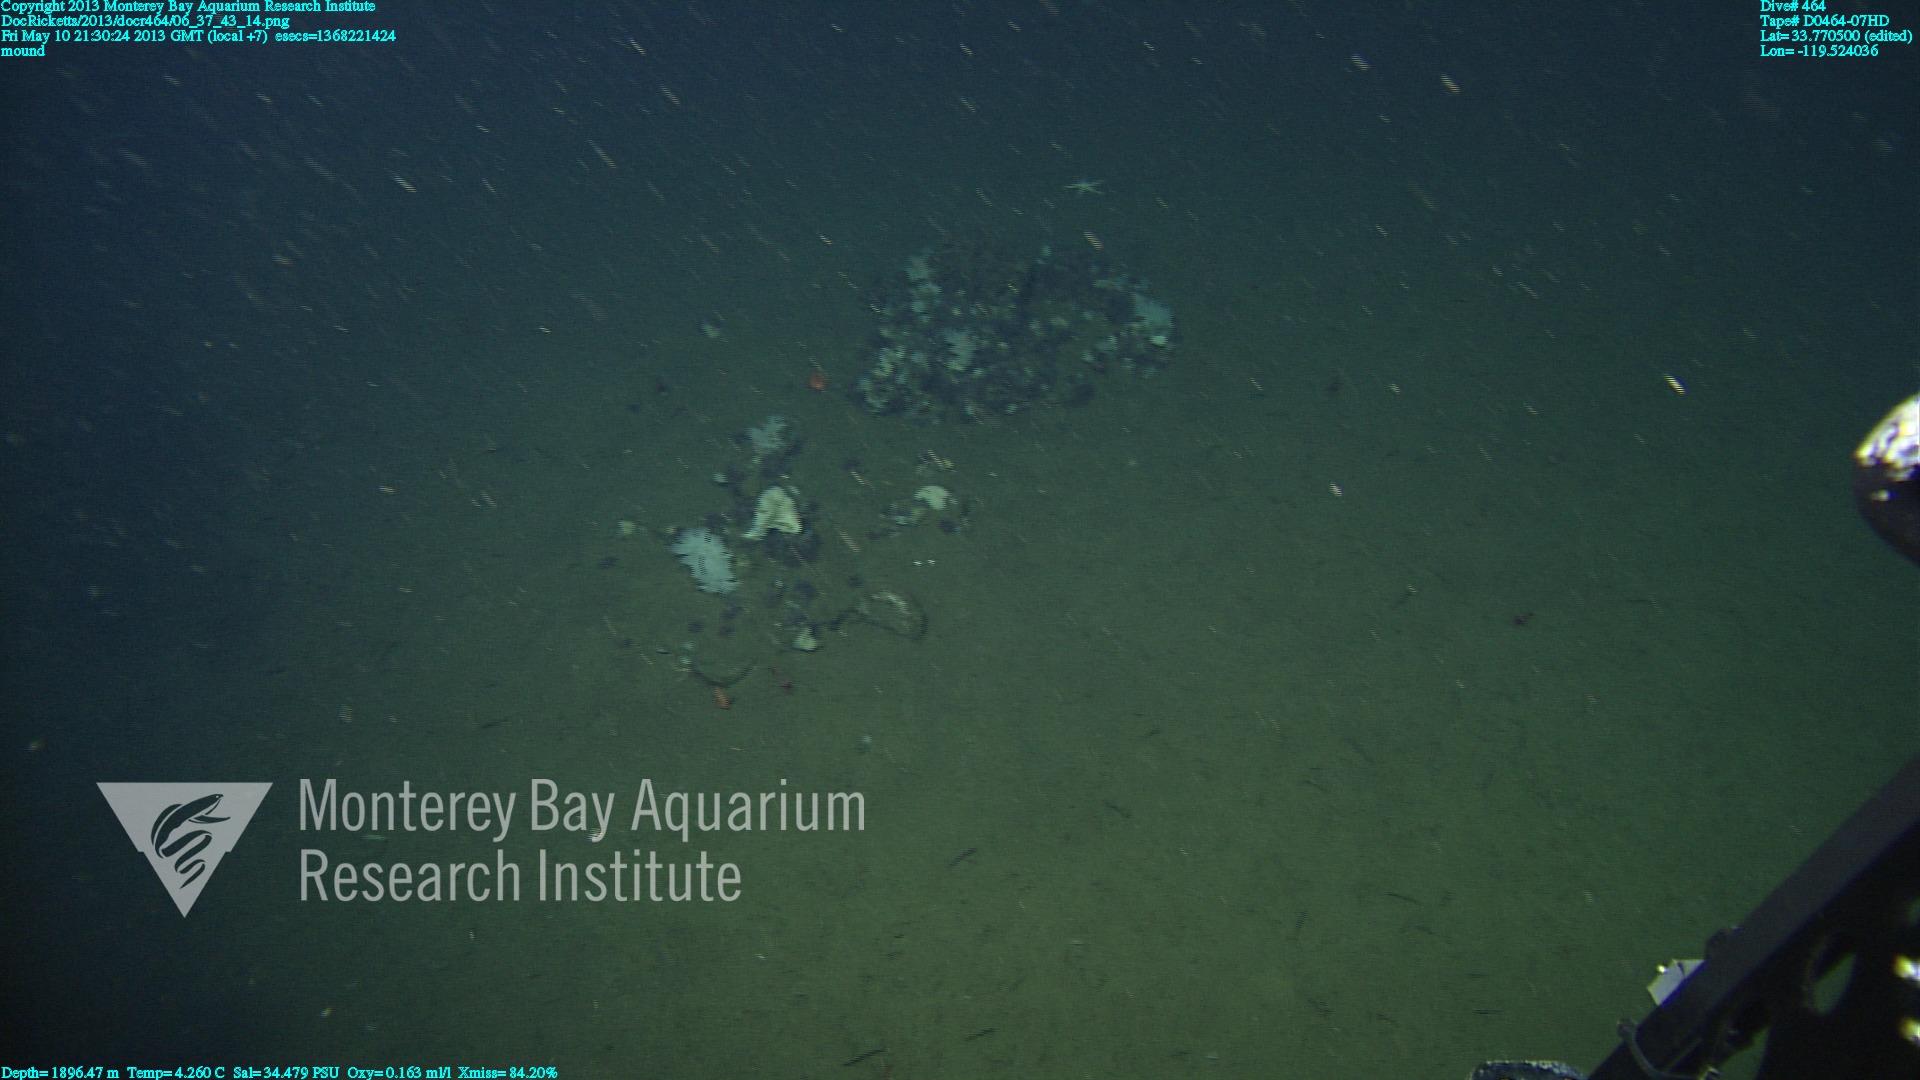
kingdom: Animalia
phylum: Porifera
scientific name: Porifera
